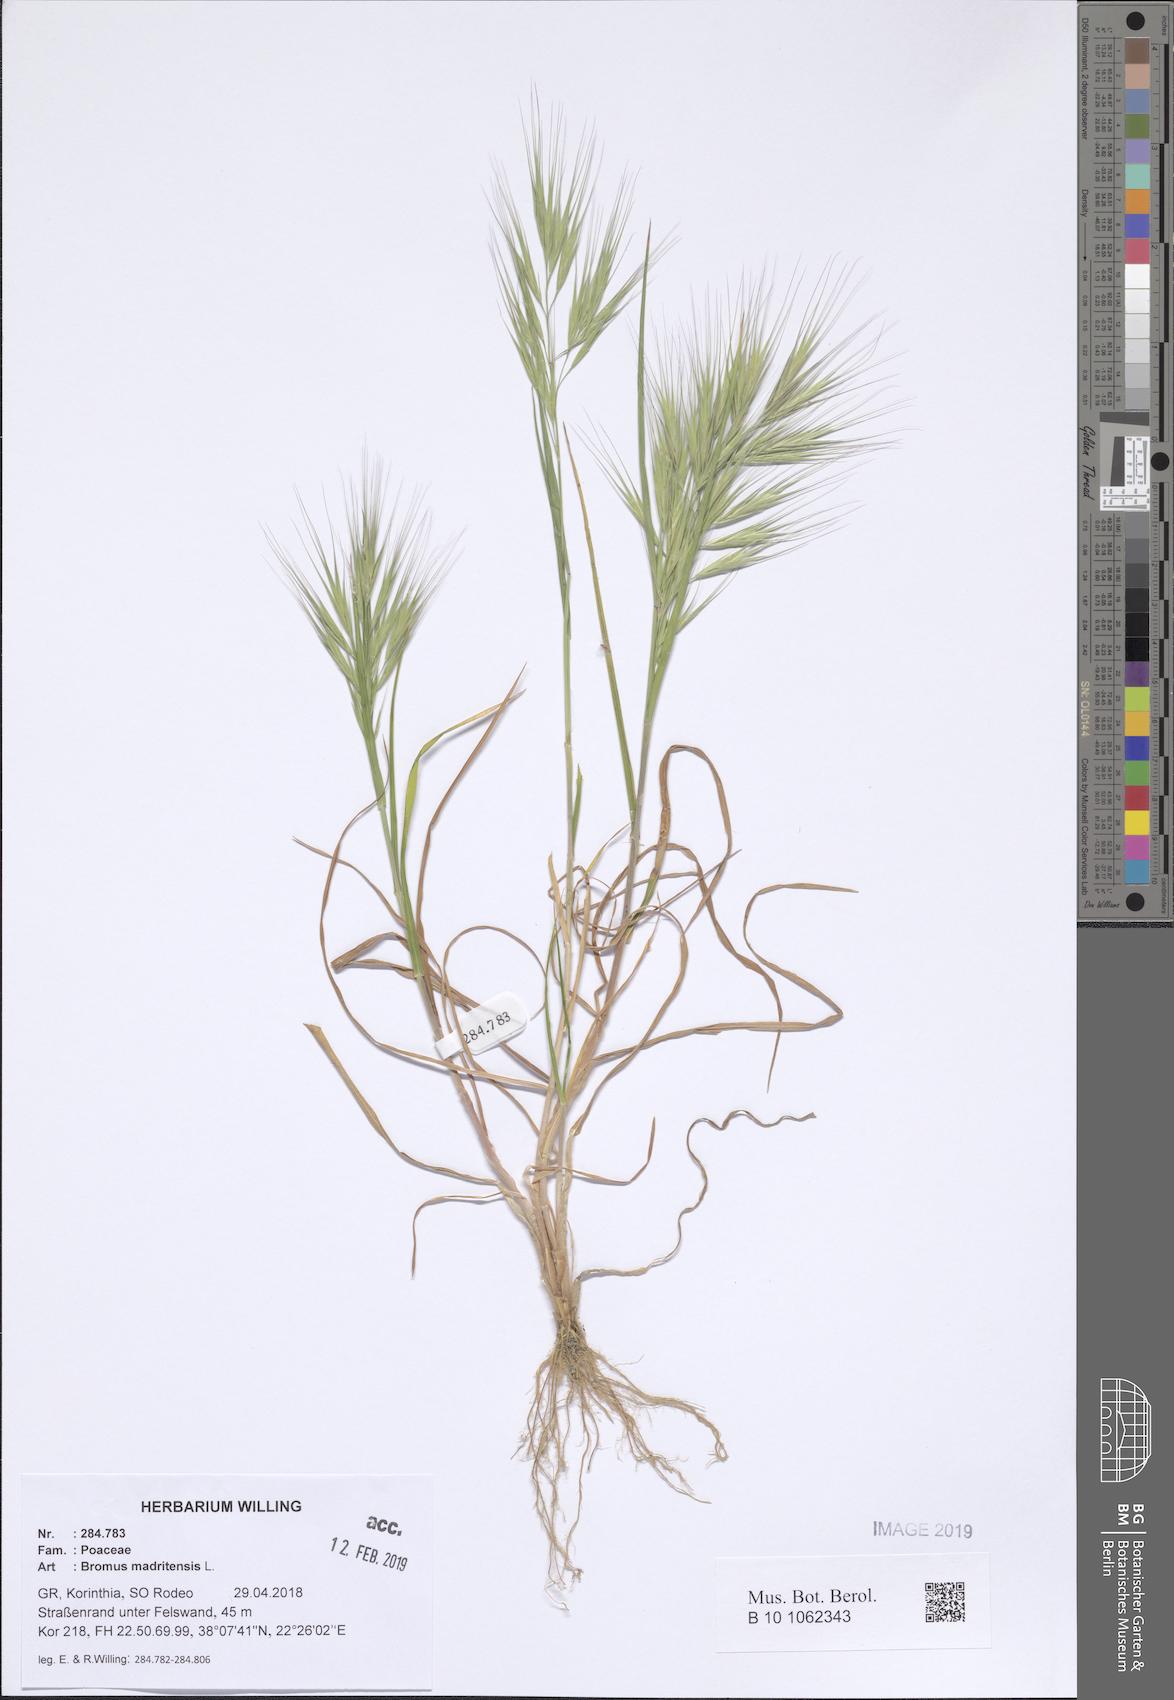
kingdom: Plantae
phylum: Tracheophyta
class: Liliopsida
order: Poales
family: Poaceae
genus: Bromus
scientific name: Bromus madritensis
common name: Compact brome
